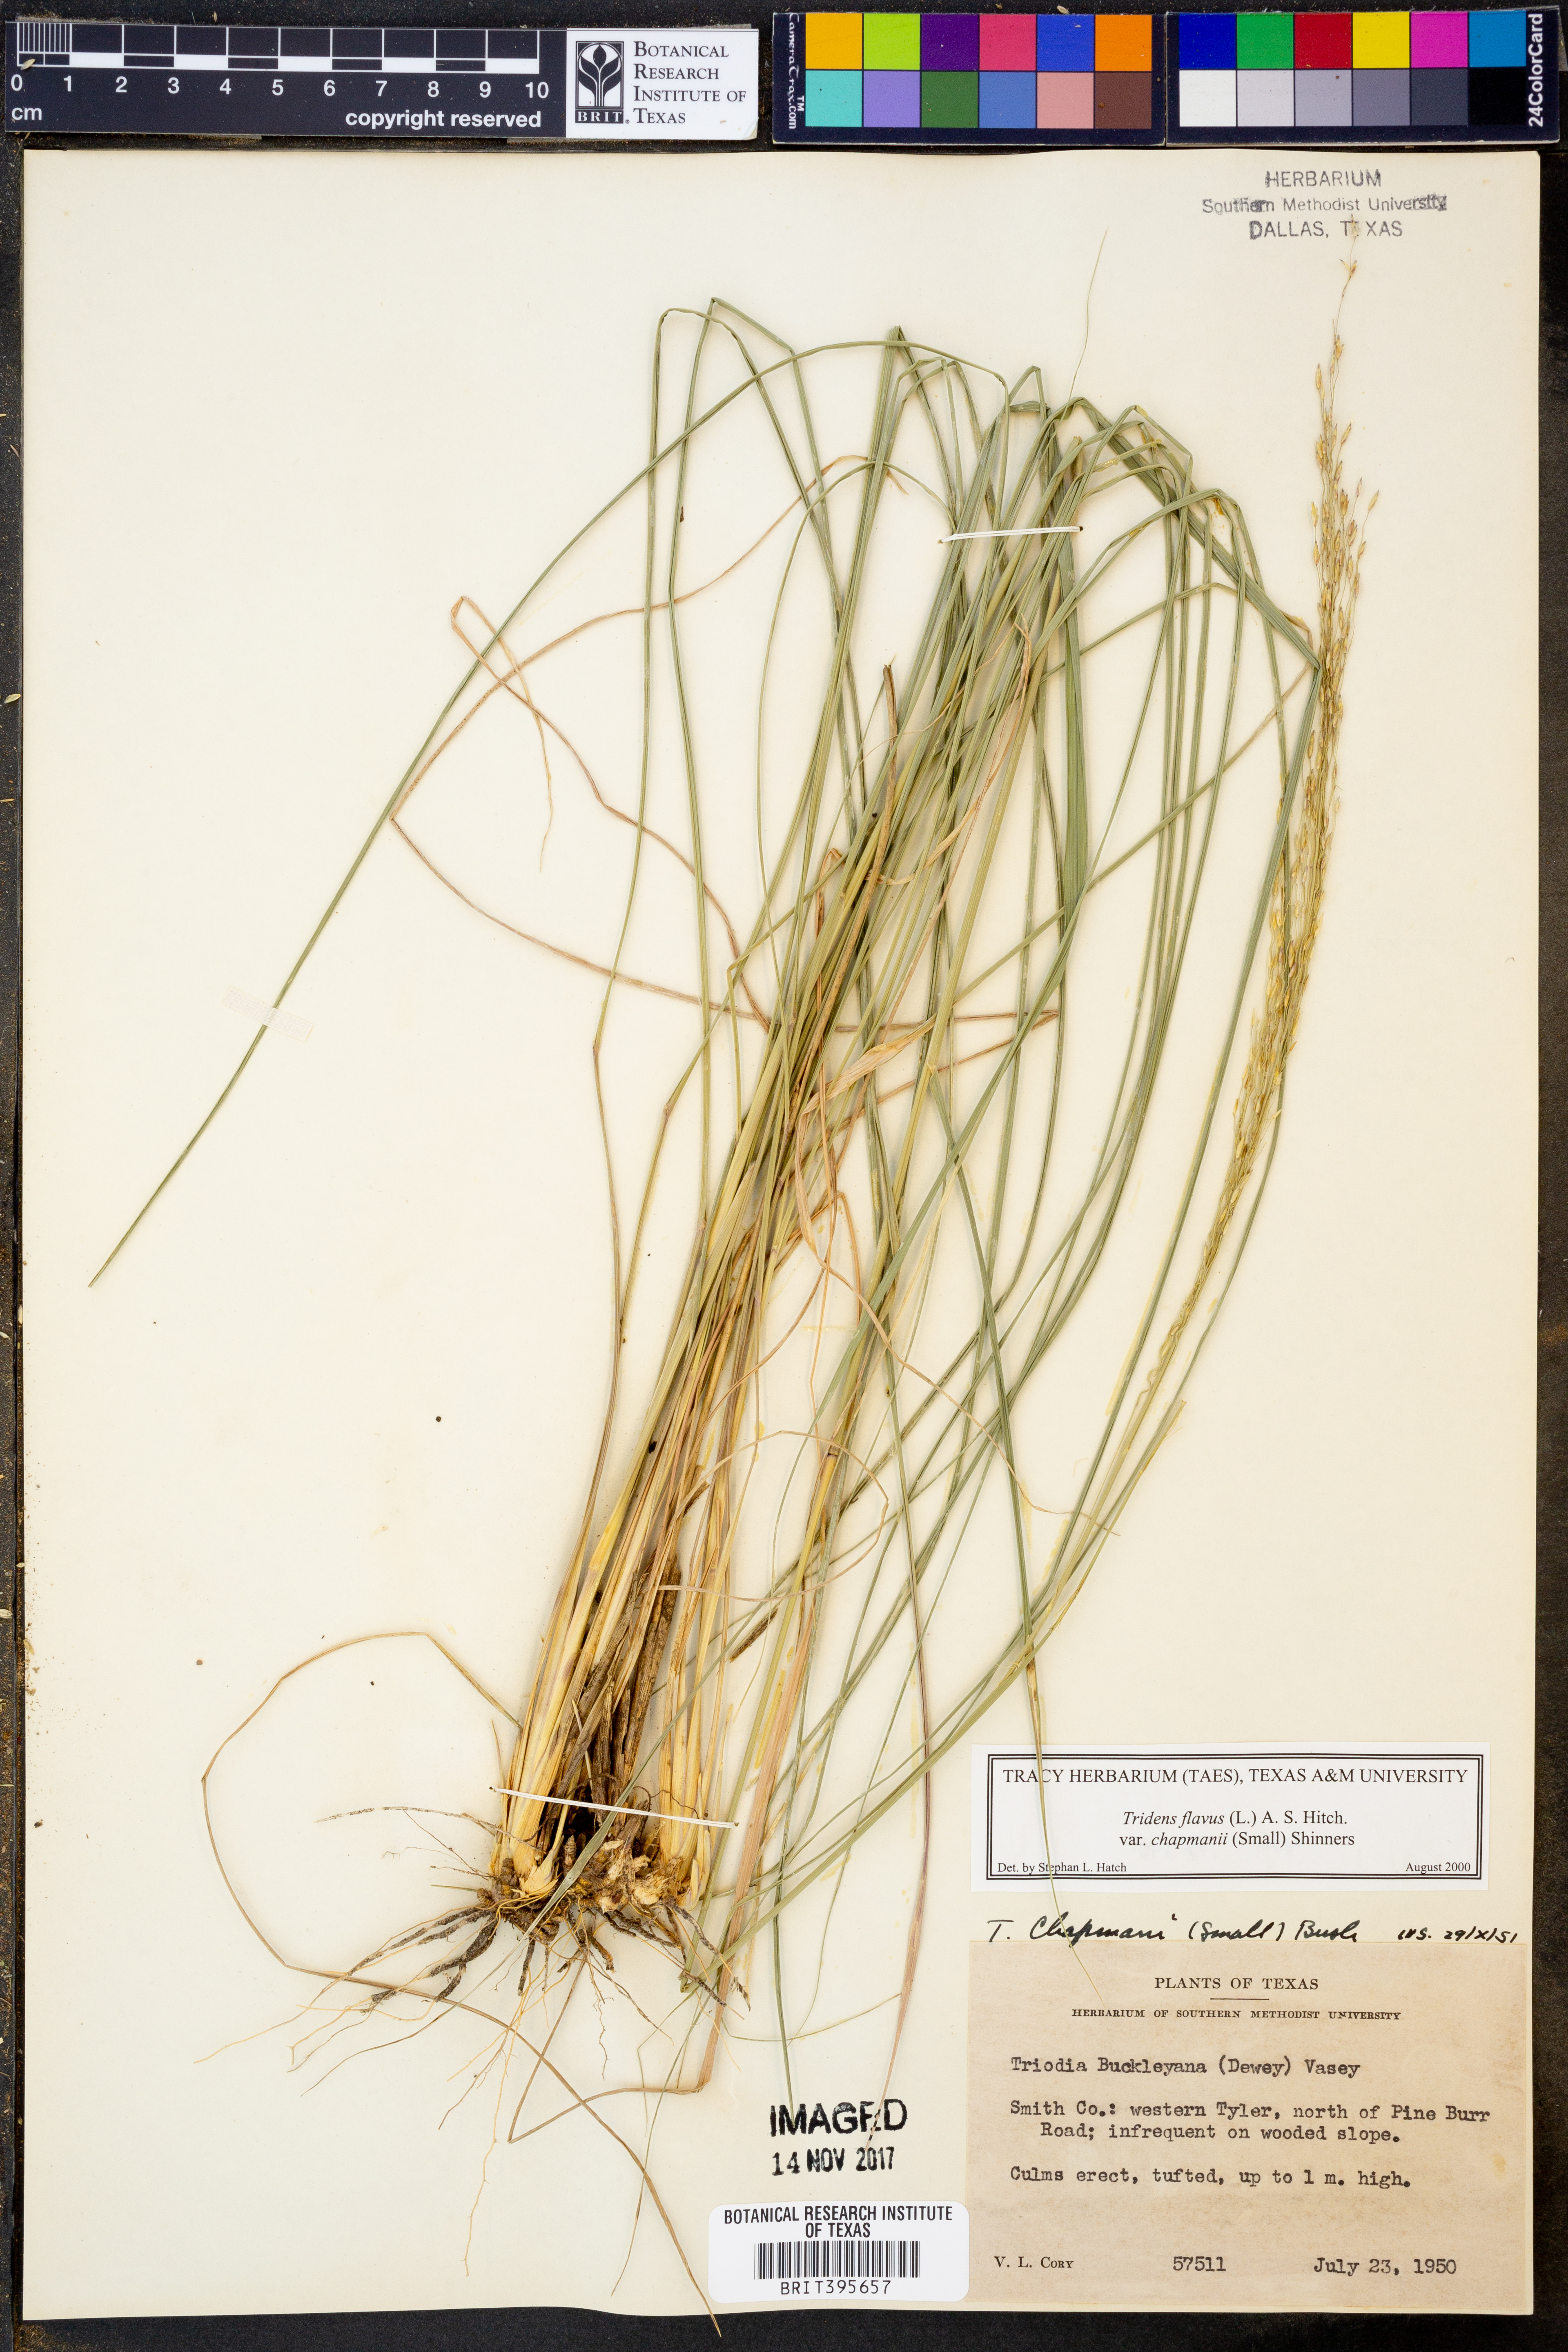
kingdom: Plantae
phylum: Tracheophyta
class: Liliopsida
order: Poales
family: Poaceae
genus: Tridens
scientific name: Tridens chapmanii
